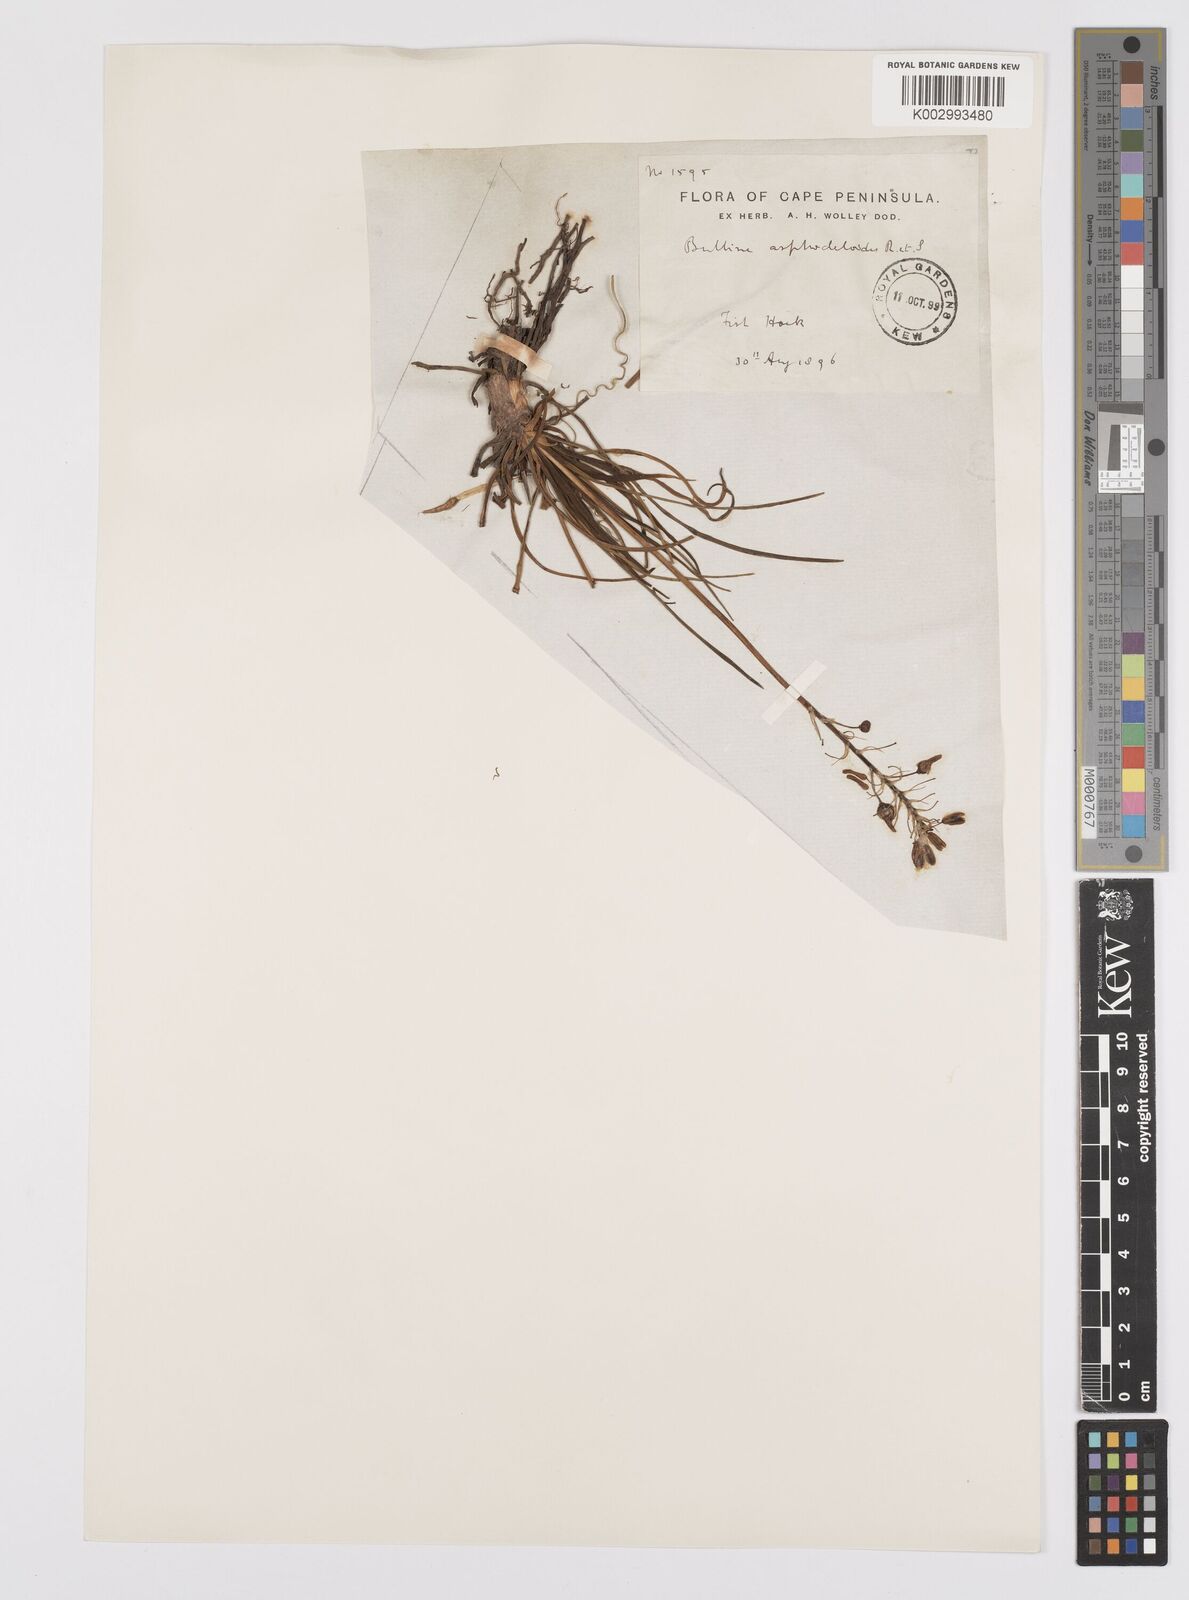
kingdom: Plantae
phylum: Tracheophyta
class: Liliopsida
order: Asparagales
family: Asphodelaceae
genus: Bulbine
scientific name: Bulbine lagopus
